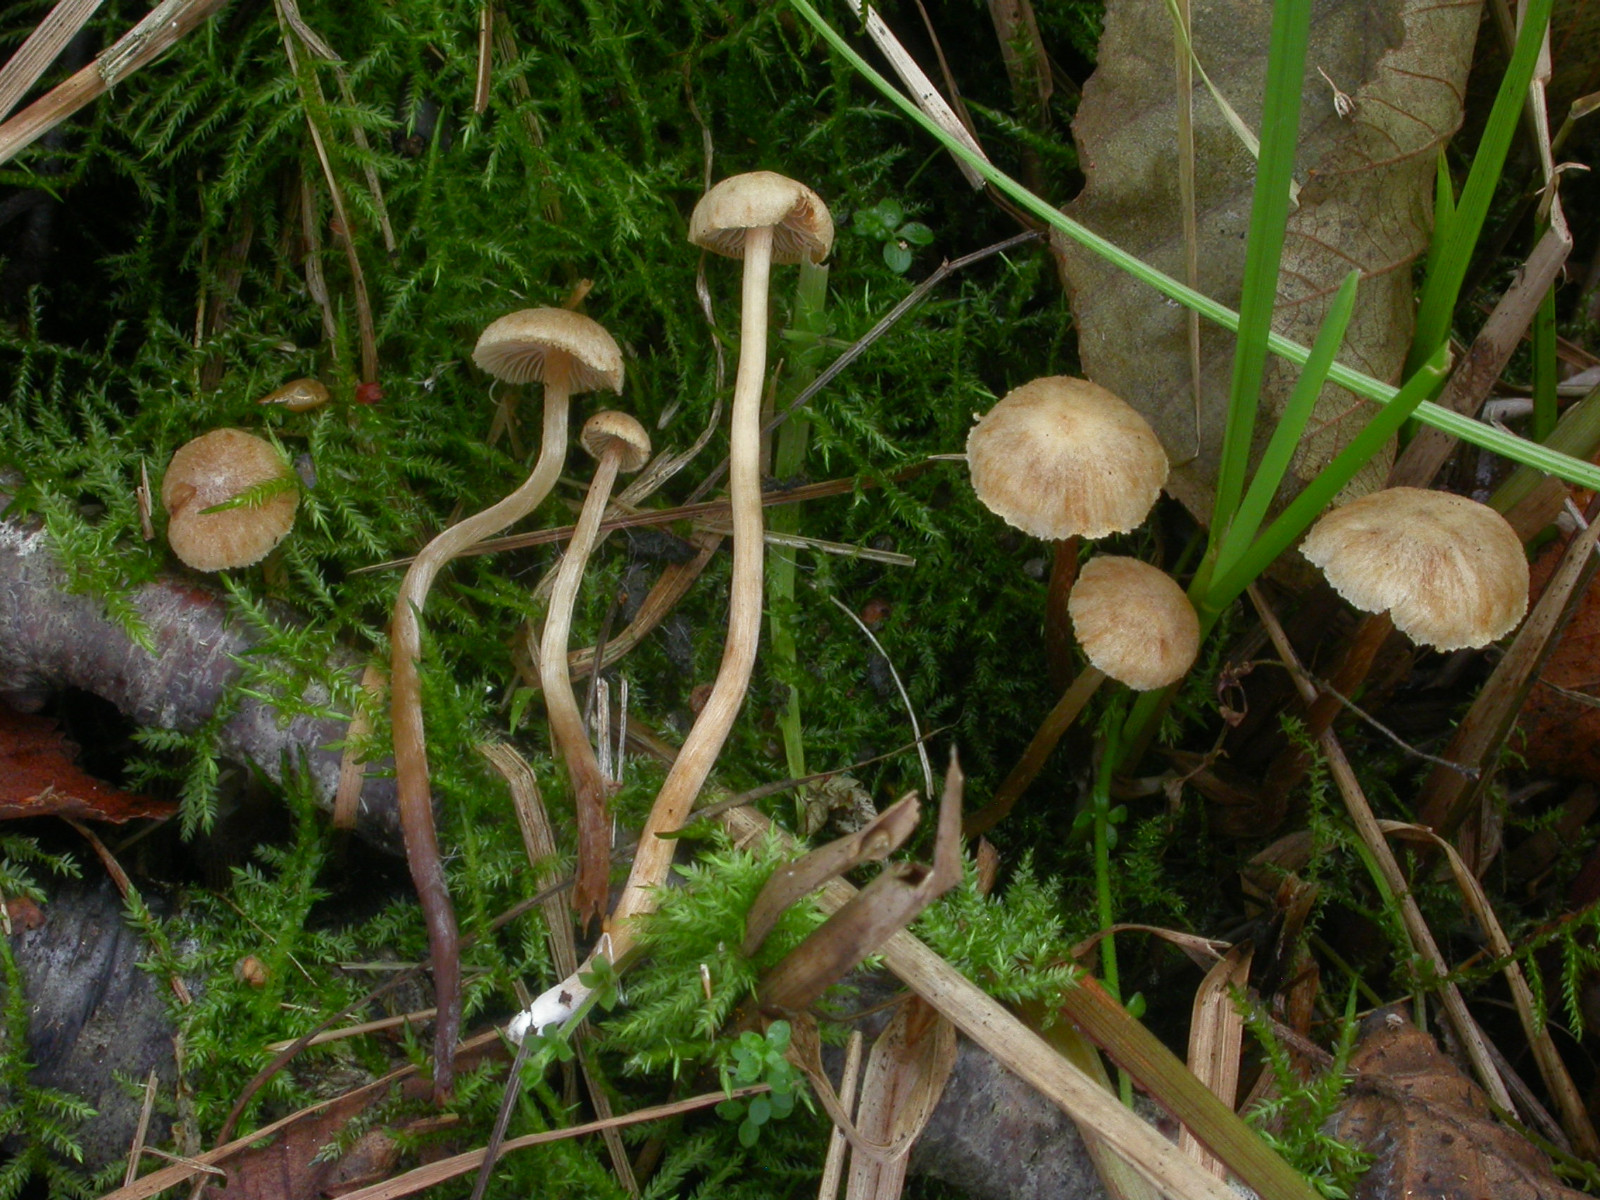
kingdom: Fungi
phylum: Basidiomycota
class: Agaricomycetes
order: Agaricales
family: Hymenogastraceae
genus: Naucoria
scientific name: Naucoria escharioides
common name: lys elle-knaphat
